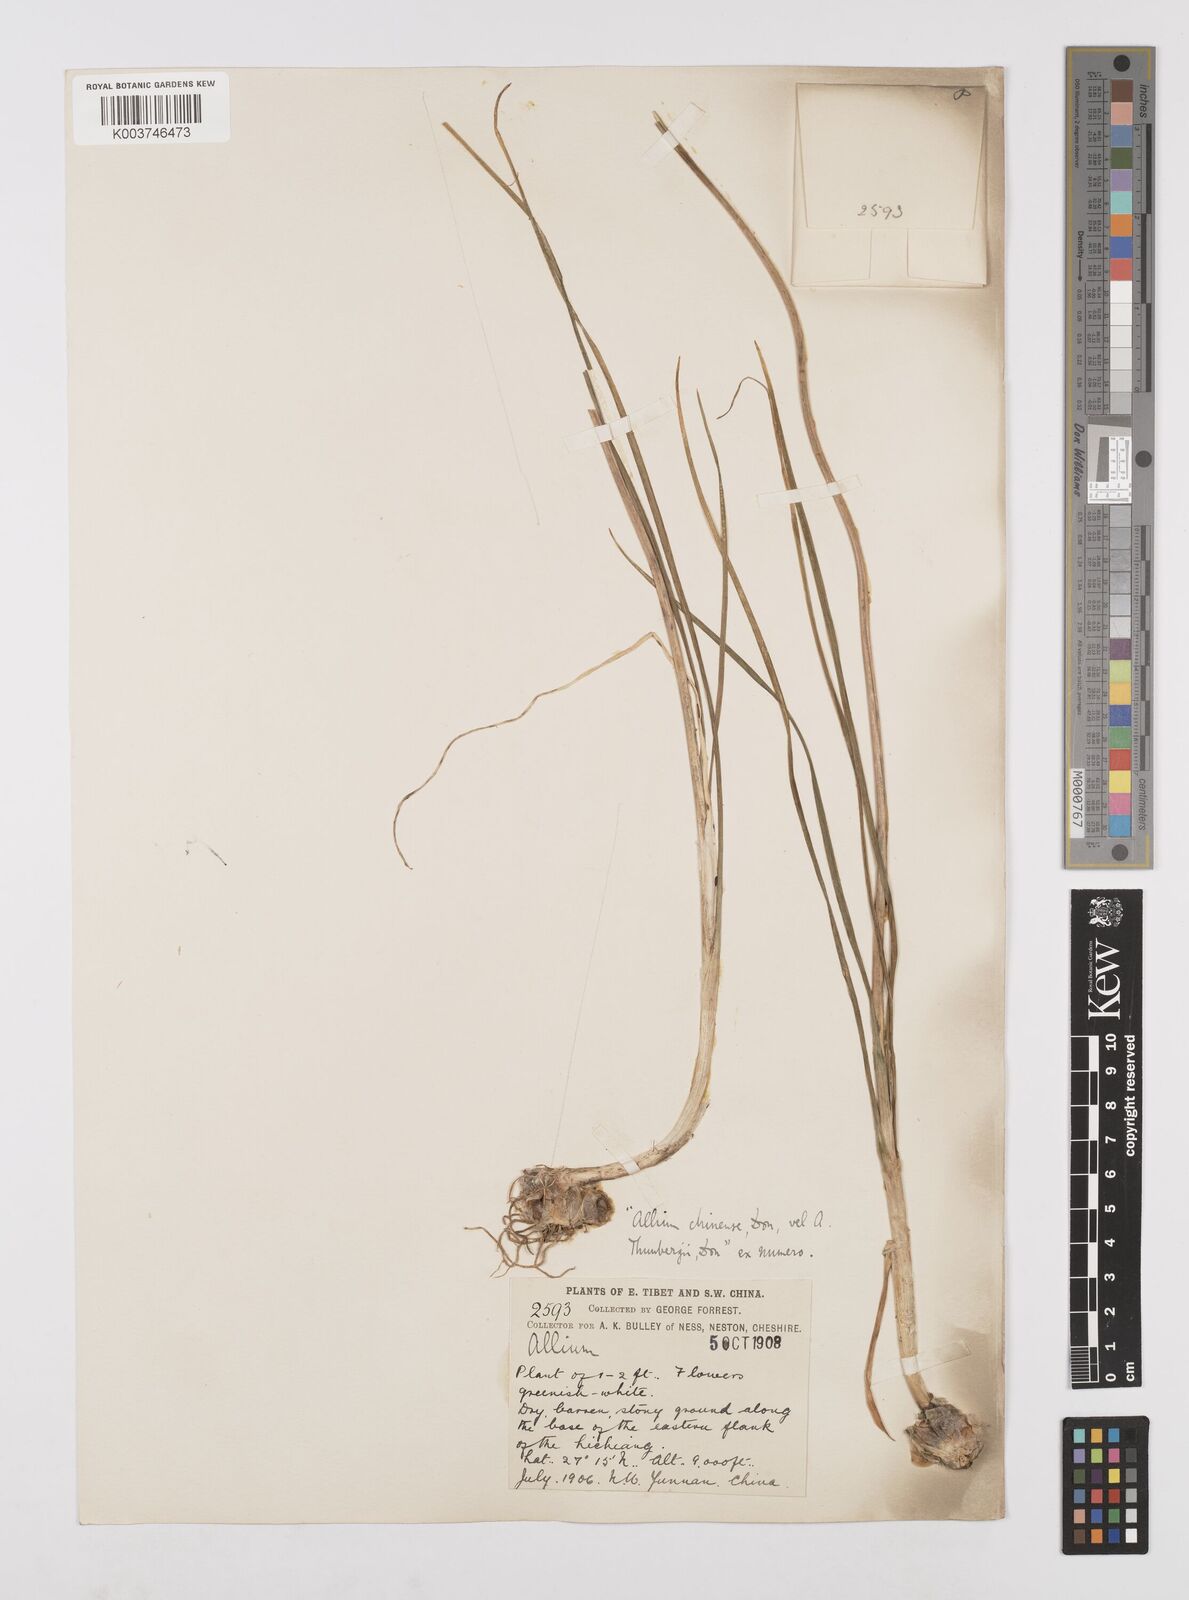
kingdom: Plantae
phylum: Tracheophyta
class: Liliopsida
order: Asparagales
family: Amaryllidaceae
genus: Allium
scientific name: Allium macrostemon
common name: Chinese garlic
